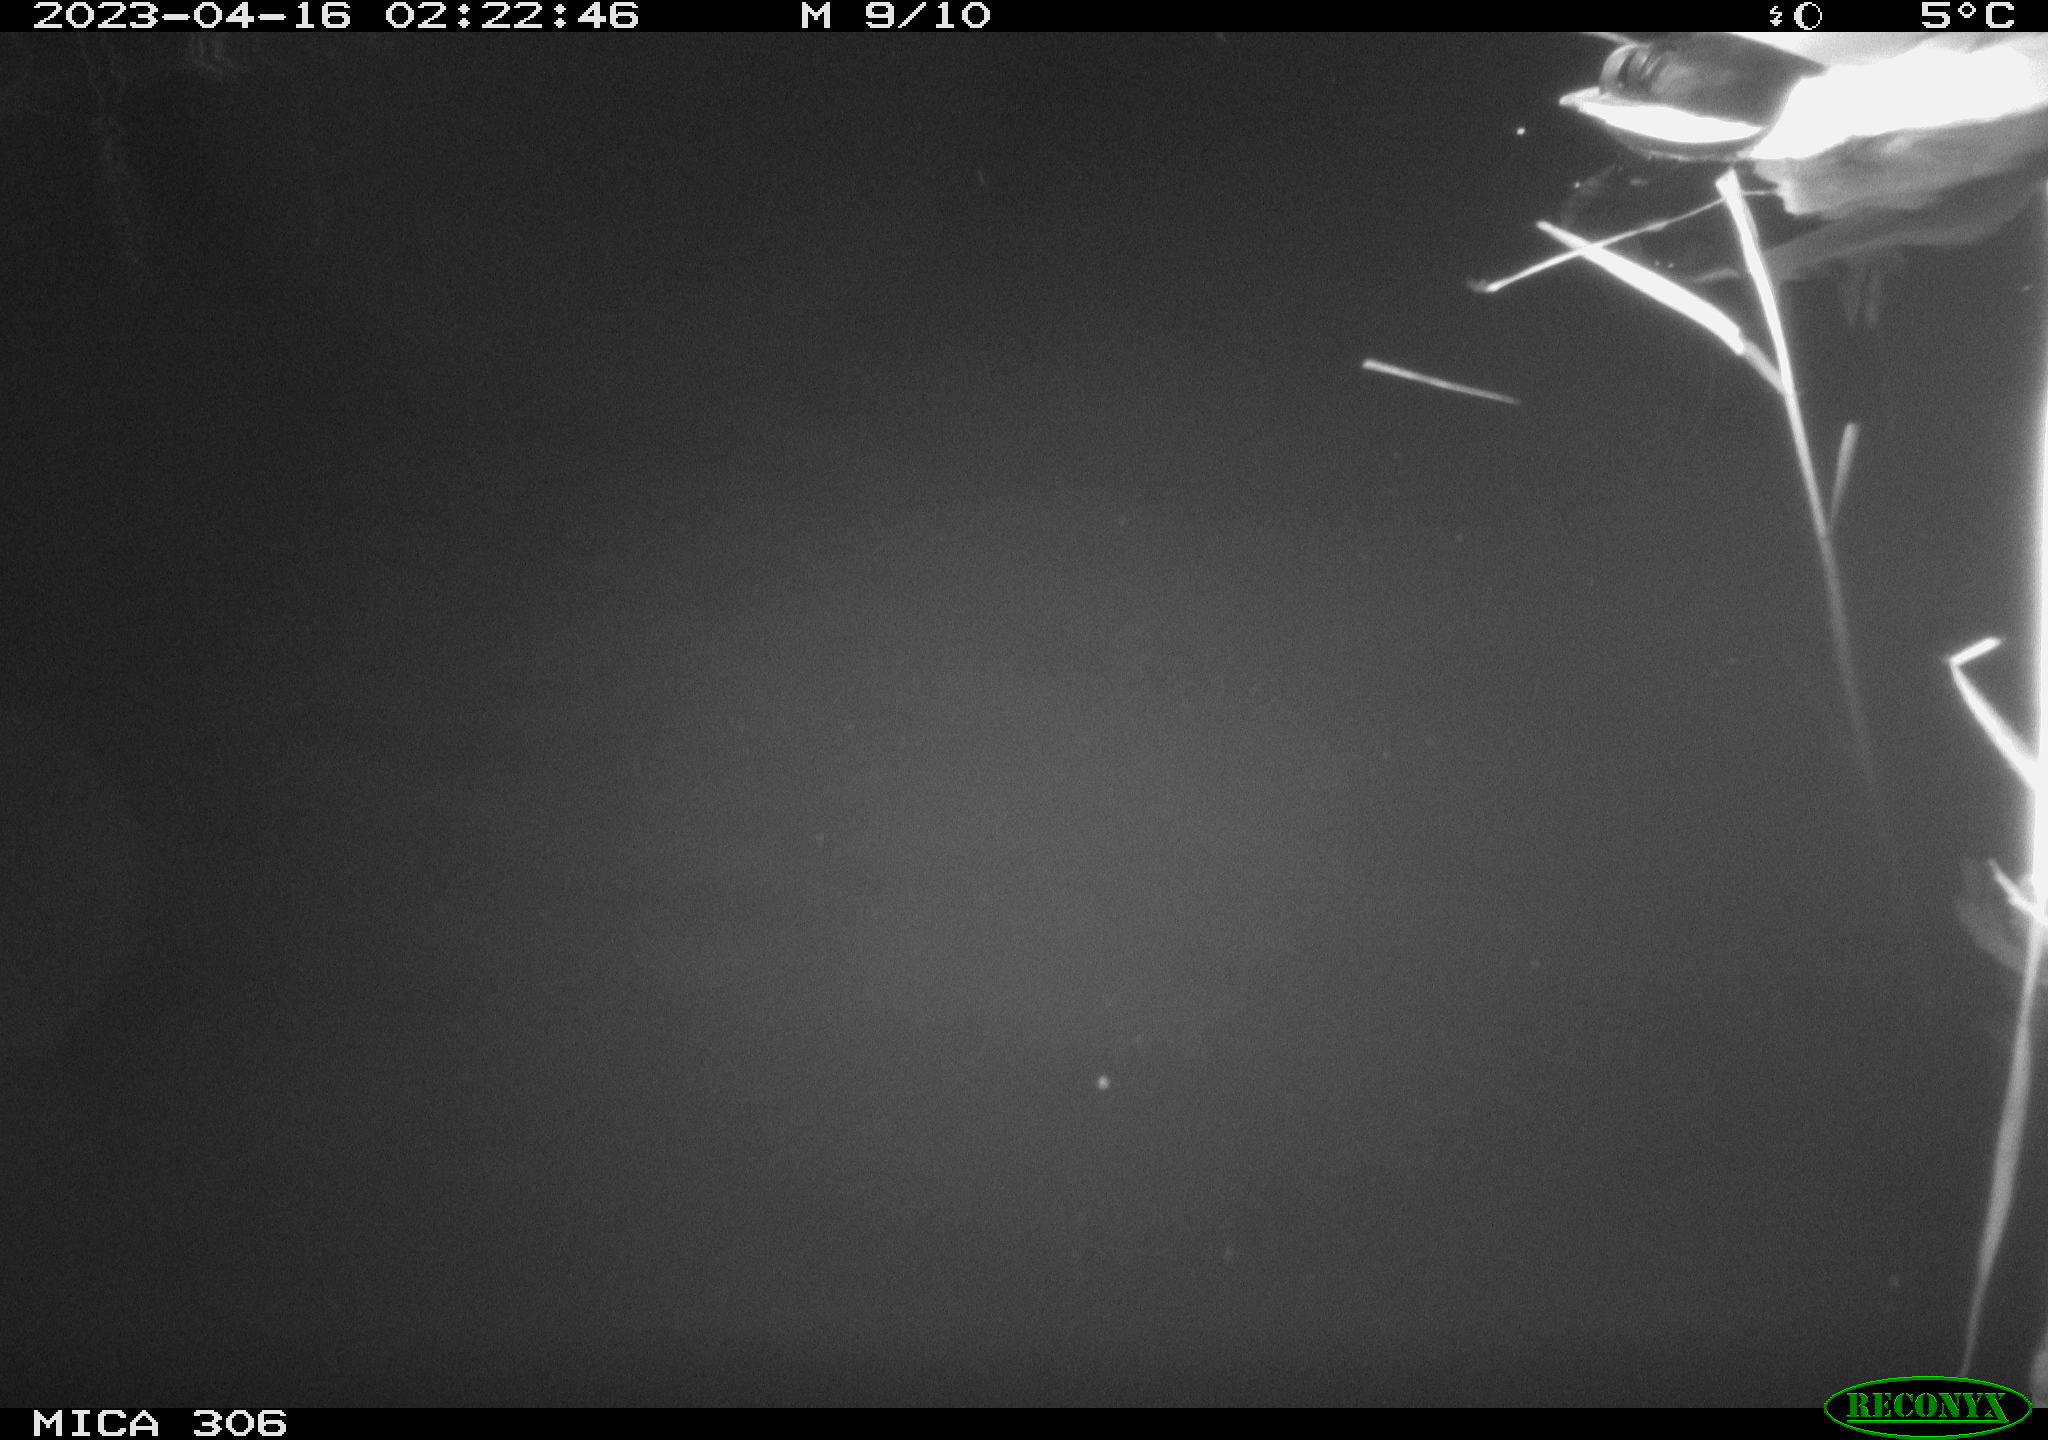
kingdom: Animalia
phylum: Chordata
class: Aves
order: Anseriformes
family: Anatidae
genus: Anas
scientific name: Anas
